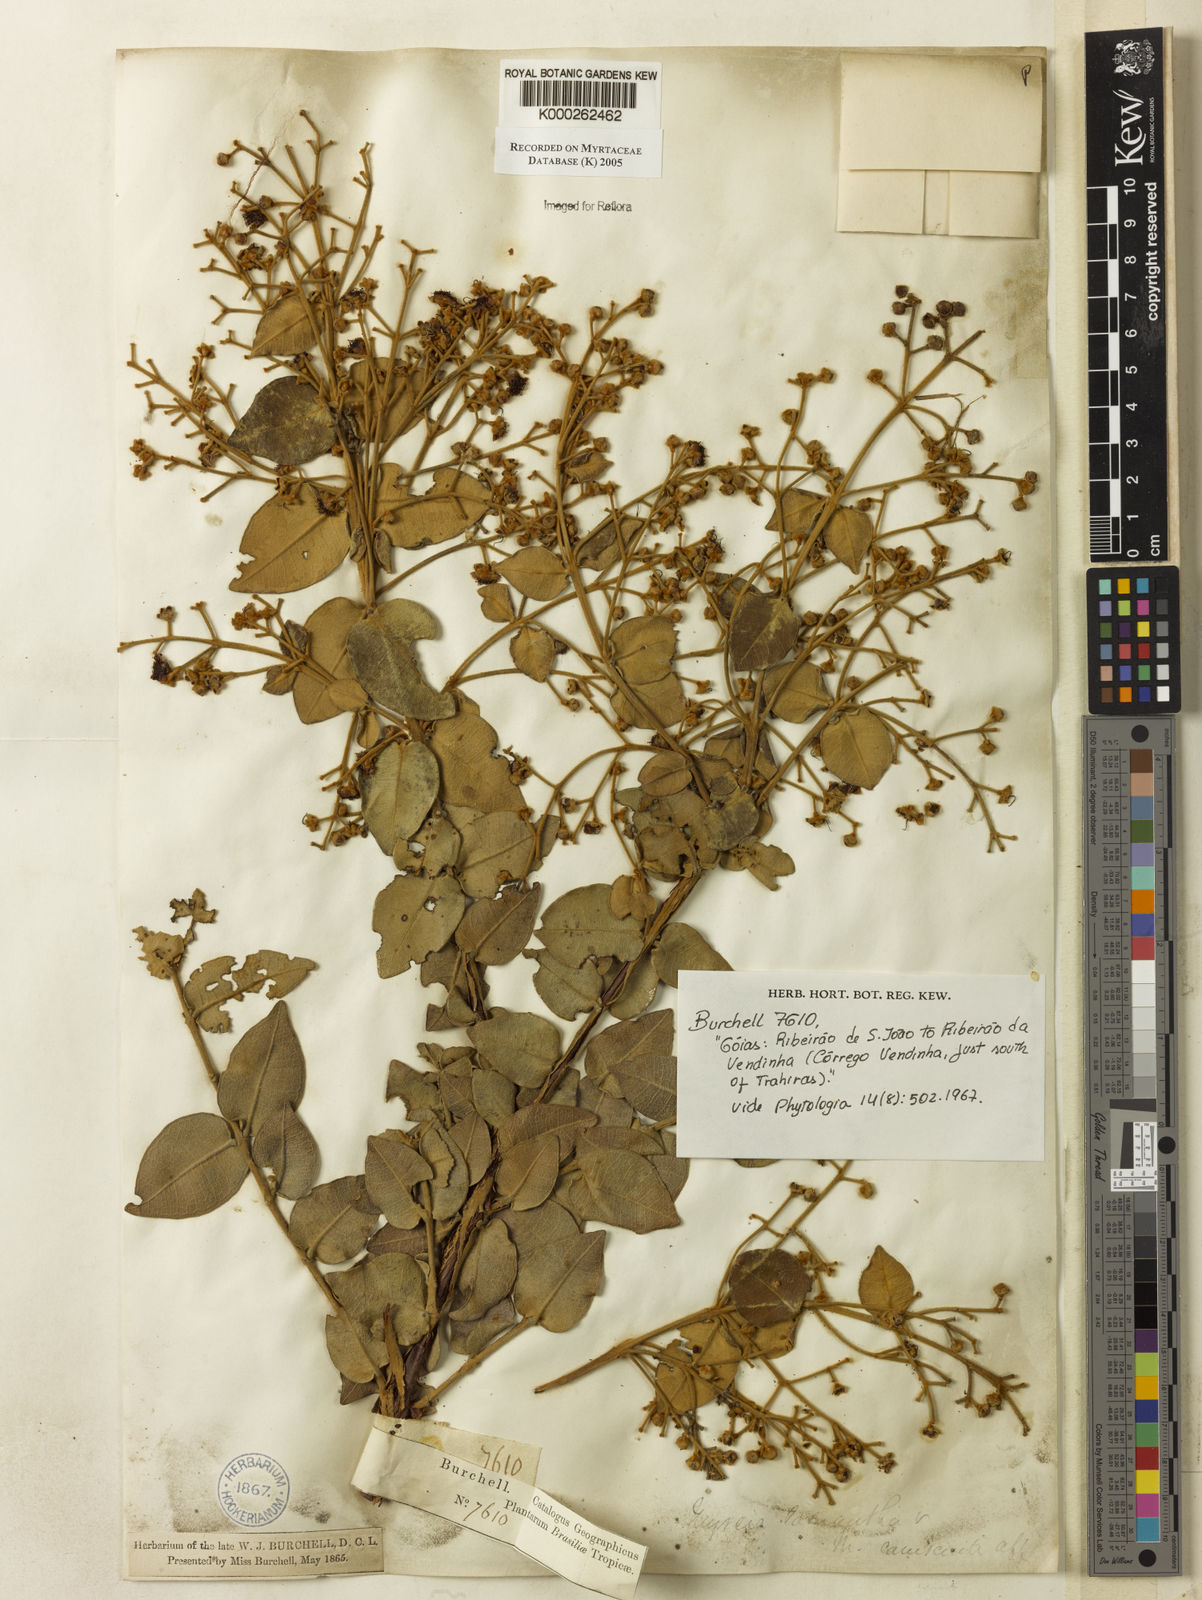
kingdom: Plantae
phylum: Tracheophyta
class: Magnoliopsida
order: Myrtales
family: Myrtaceae
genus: Myrcia
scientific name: Myrcia lasiantha
